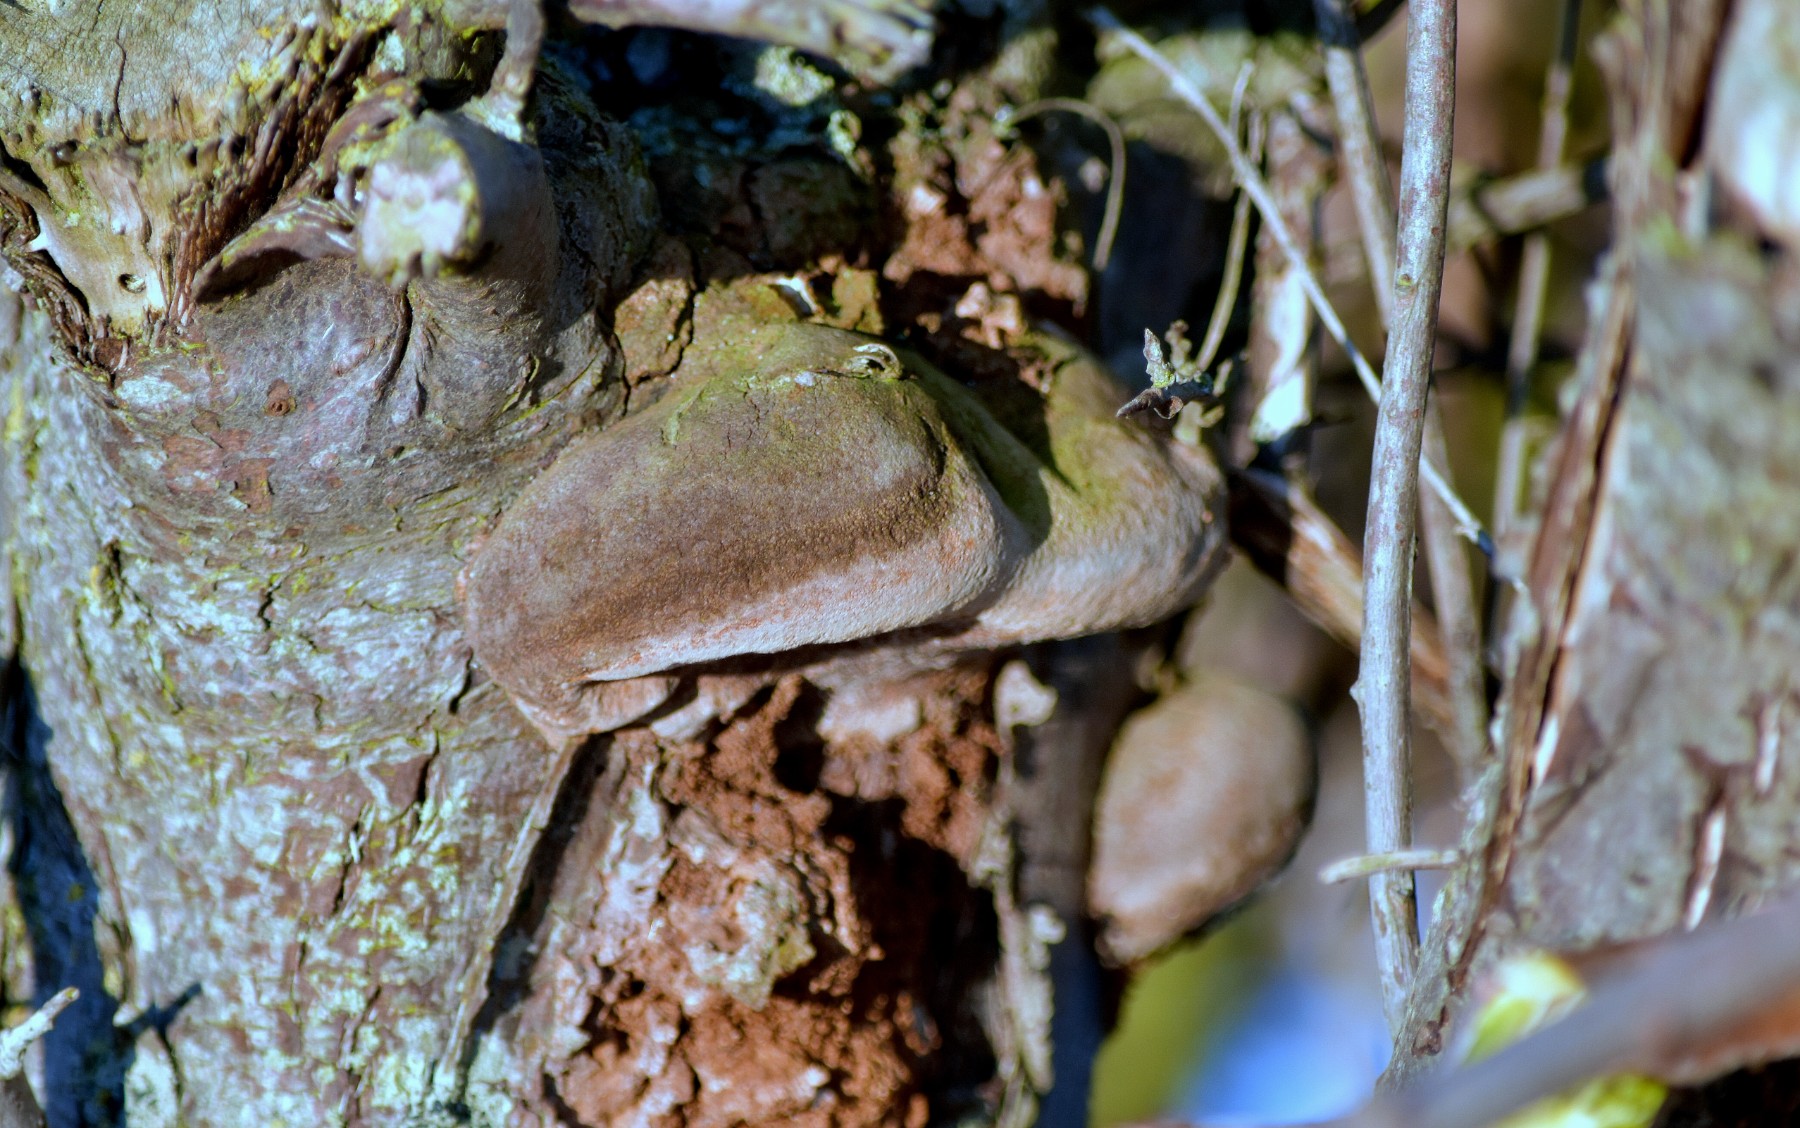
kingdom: Fungi
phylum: Basidiomycota
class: Agaricomycetes
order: Hymenochaetales
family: Hymenochaetaceae
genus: Fomitiporia
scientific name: Fomitiporia hippophaeicola
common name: havtorn-ildporesvamp
